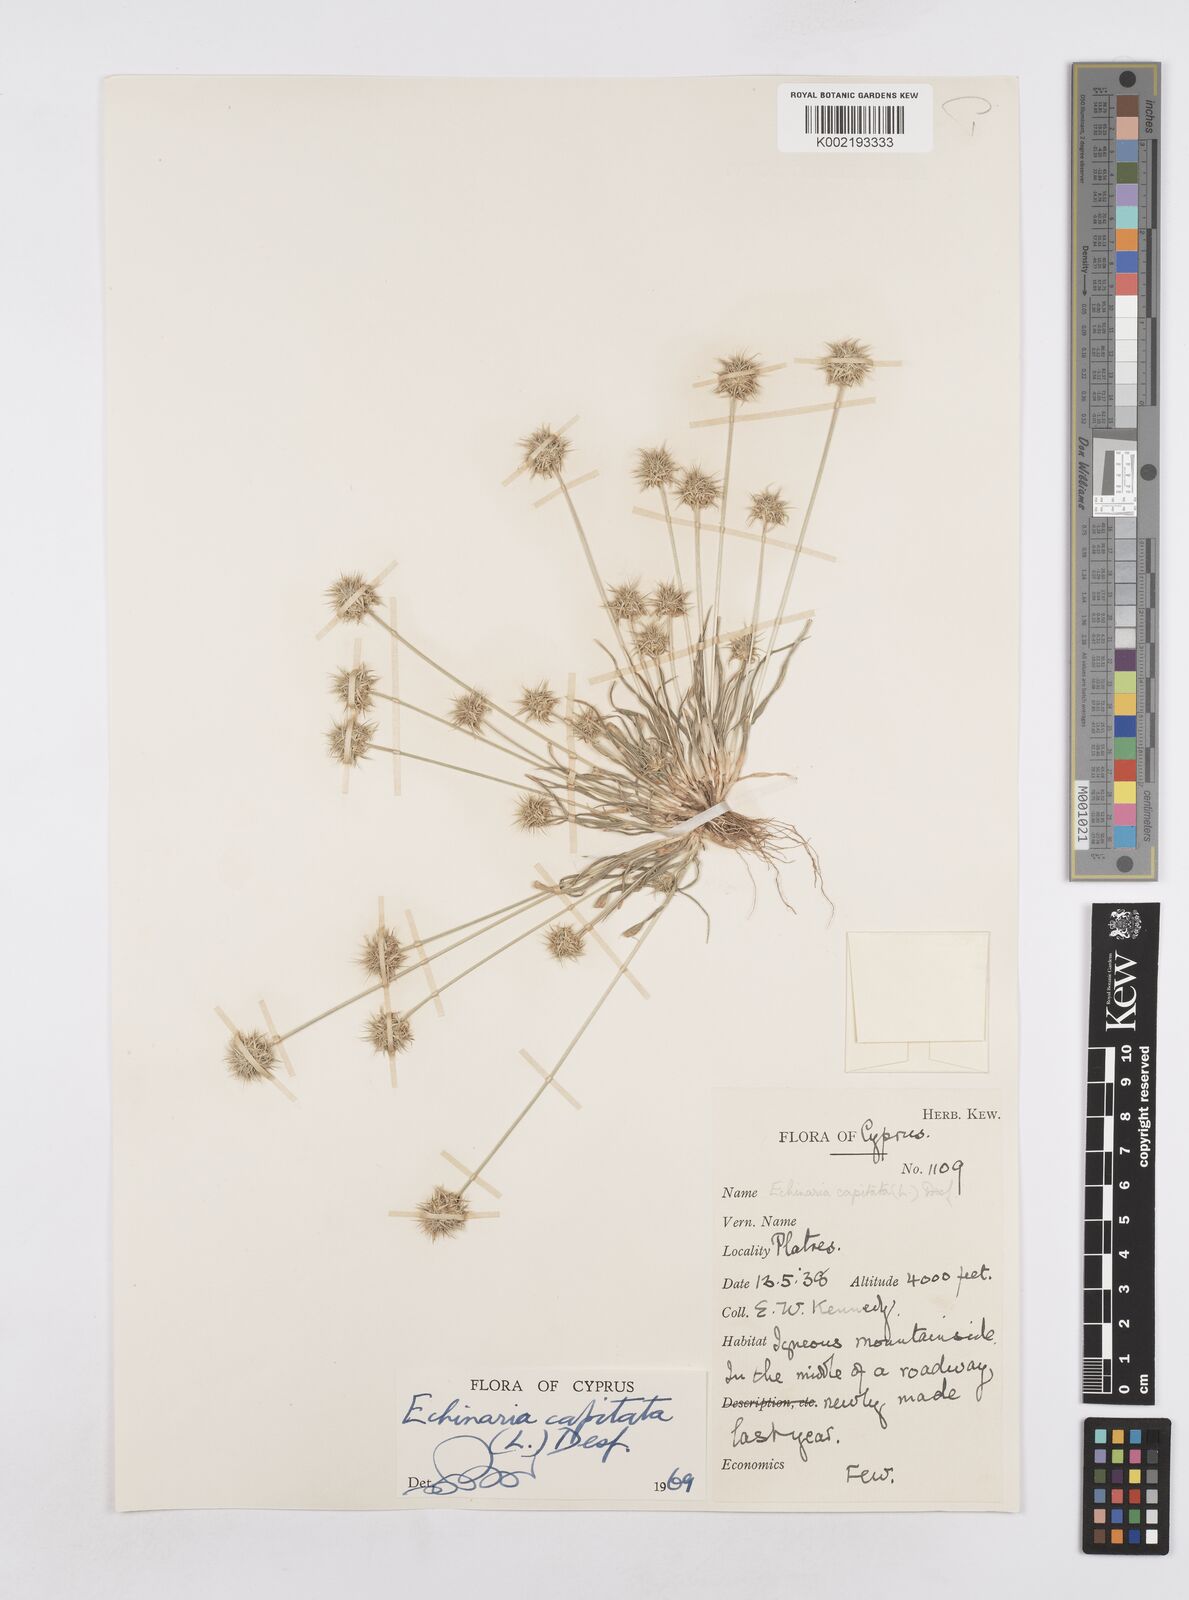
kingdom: Plantae
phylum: Tracheophyta
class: Liliopsida
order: Poales
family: Poaceae
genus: Echinaria
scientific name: Echinaria capitata
